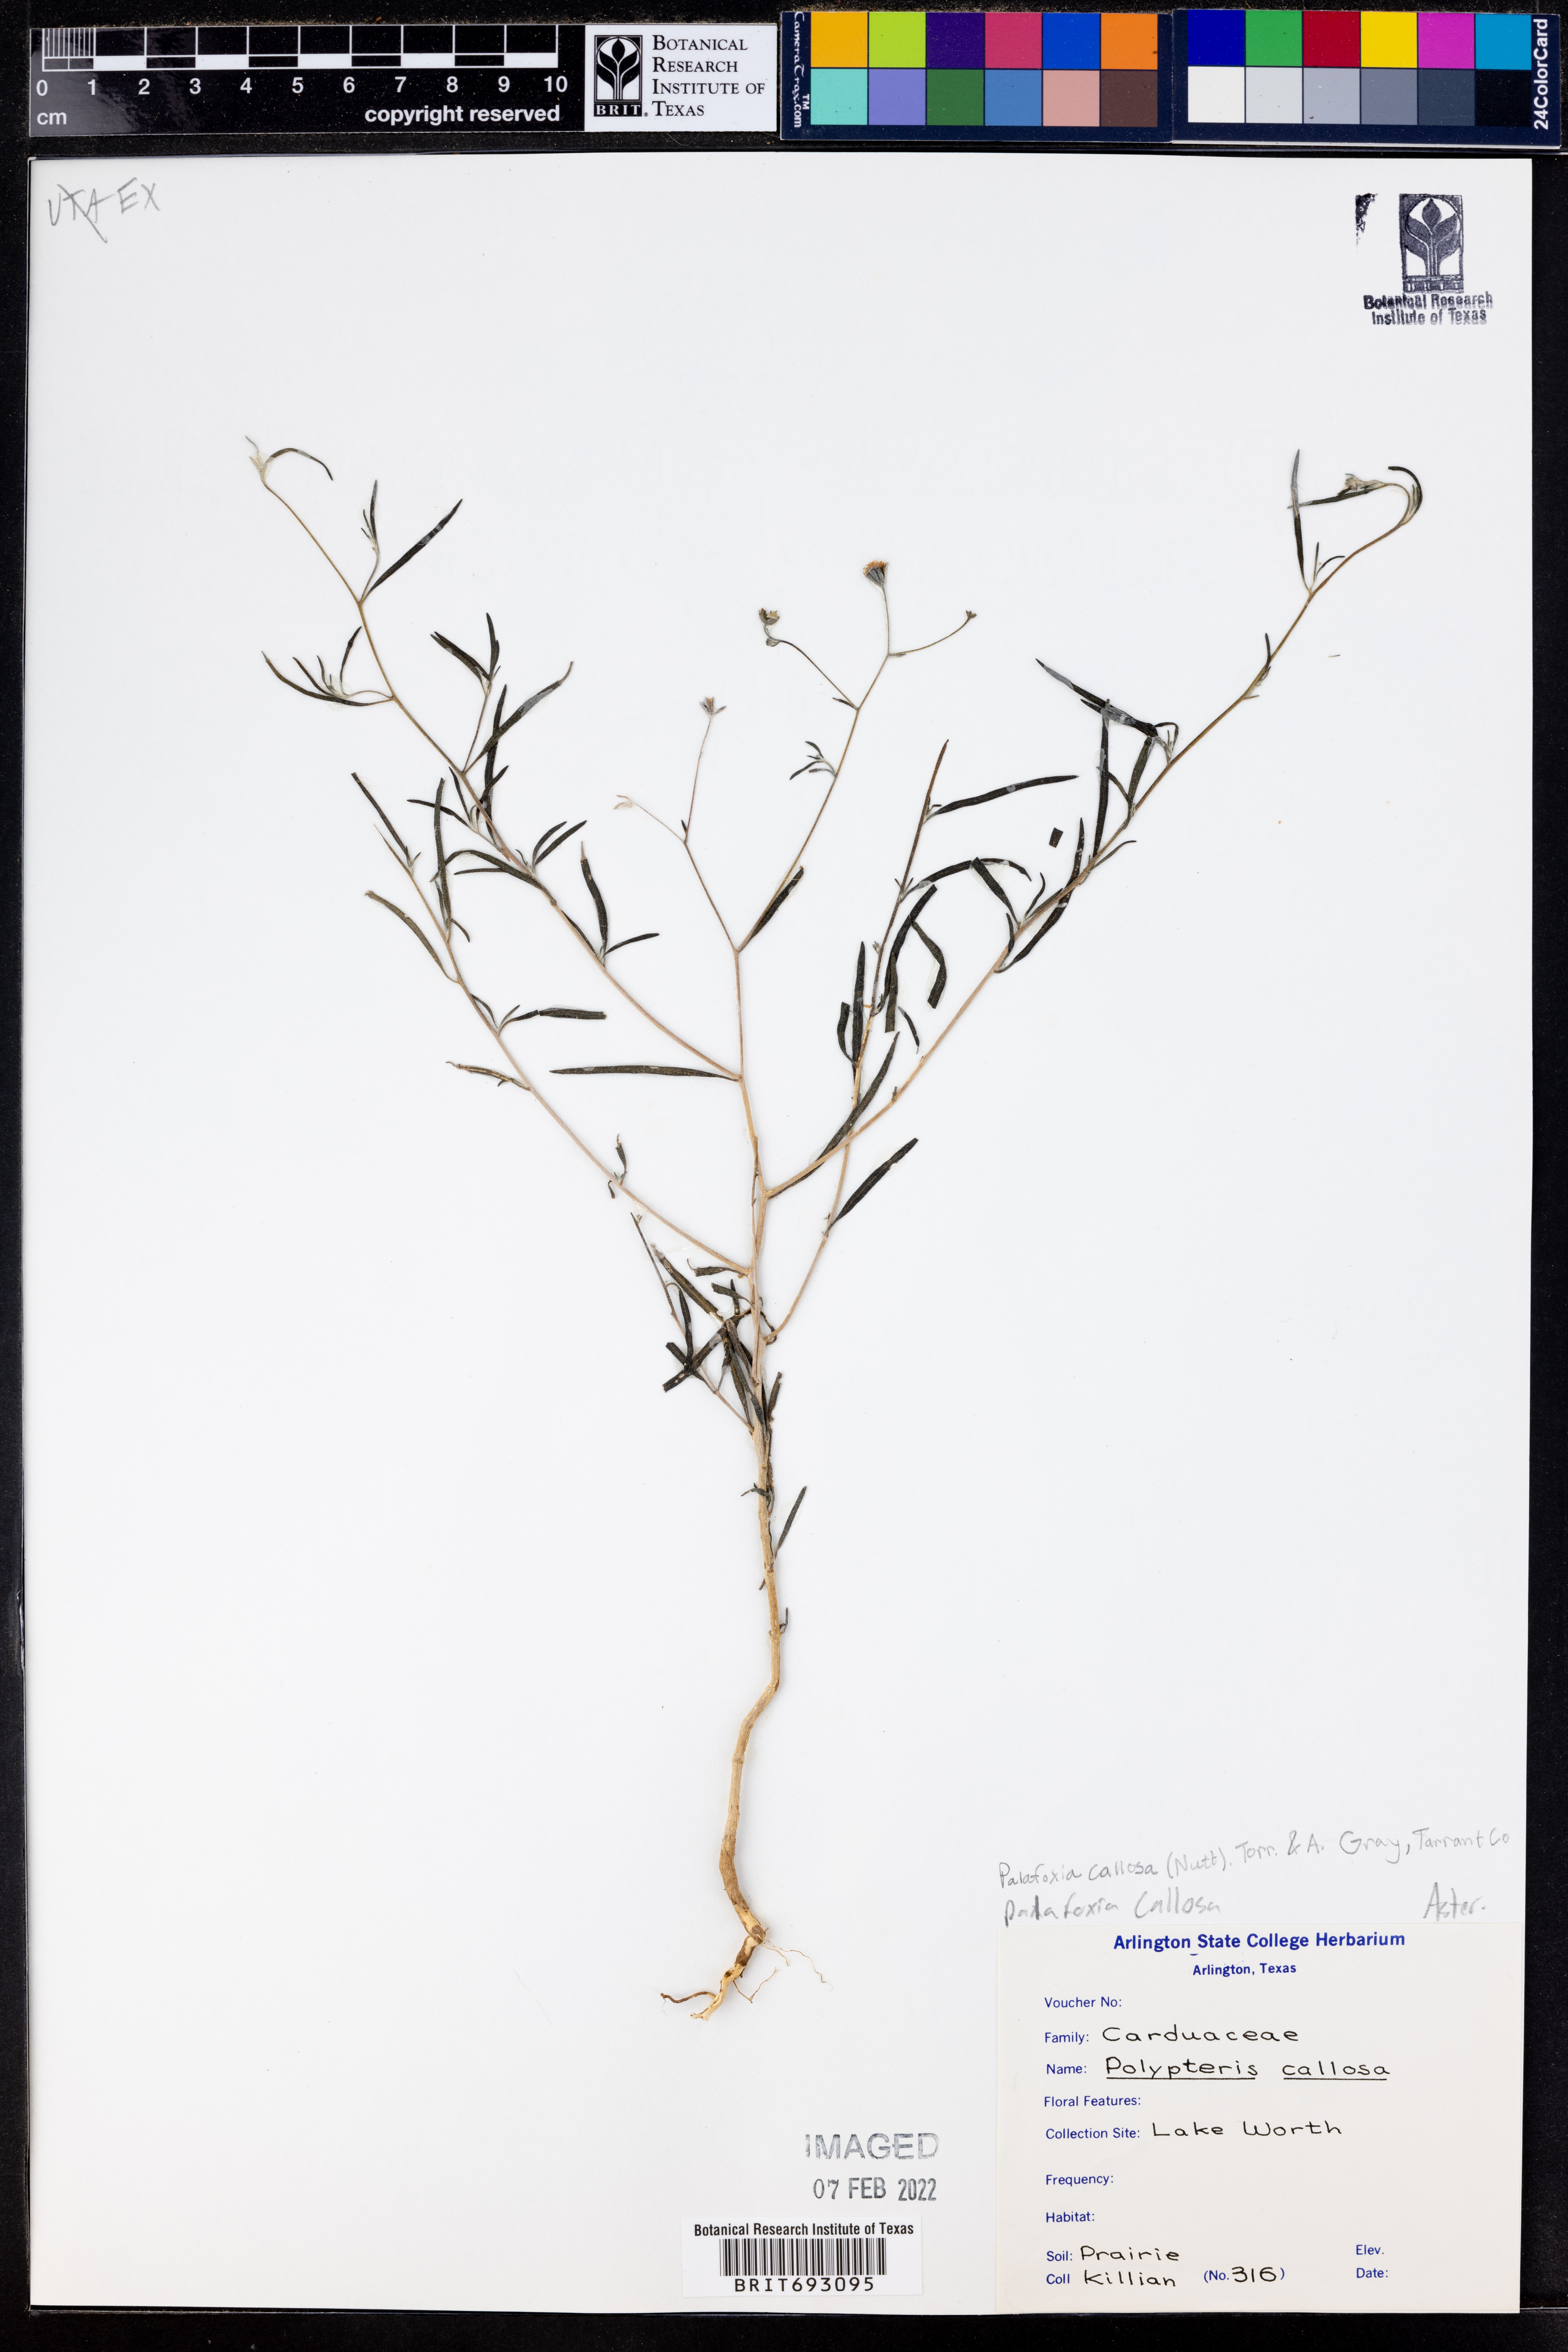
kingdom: Plantae
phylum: Tracheophyta
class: Magnoliopsida
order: Asterales
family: Asteraceae
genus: Palafoxia
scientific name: Palafoxia callosa
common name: Small palafox
